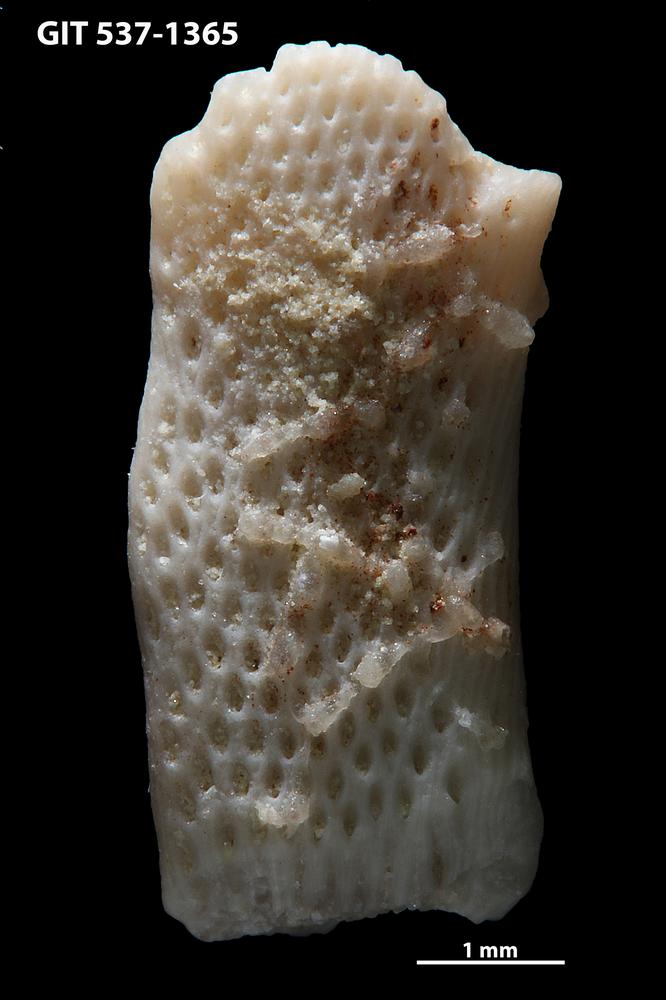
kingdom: Animalia
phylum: Bryozoa
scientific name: Bryozoa
